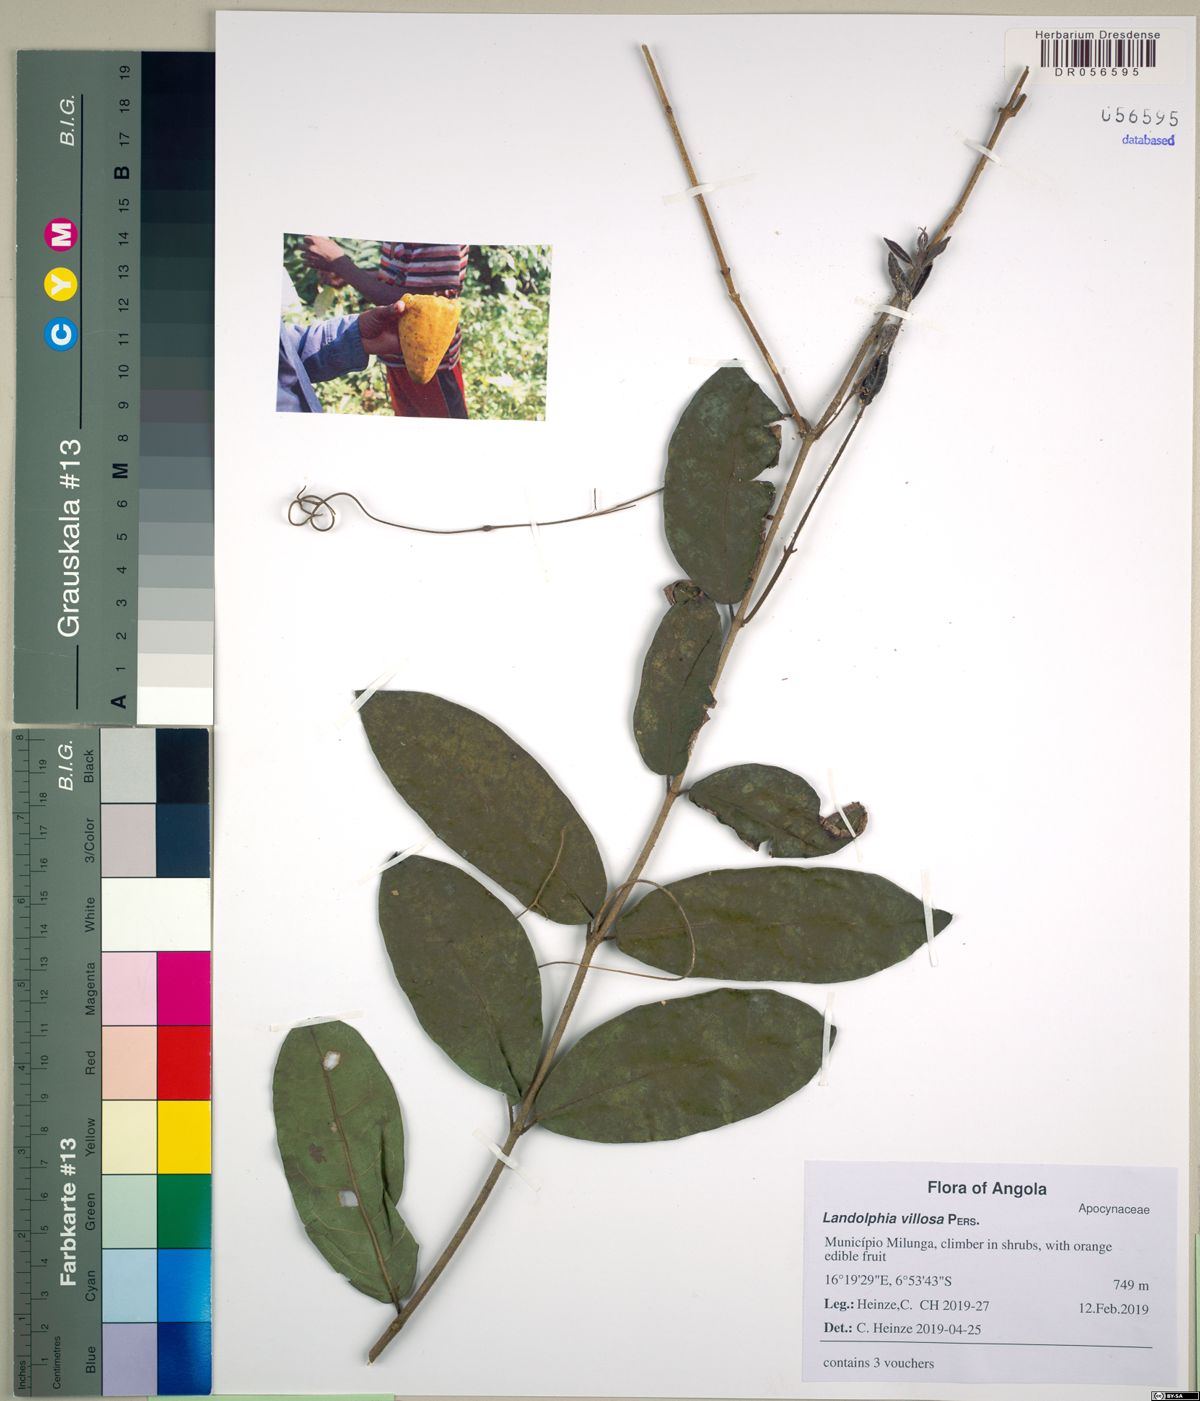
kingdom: Plantae
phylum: Tracheophyta
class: Magnoliopsida
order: Gentianales
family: Apocynaceae
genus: Landolphia
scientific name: Landolphia congolensis
